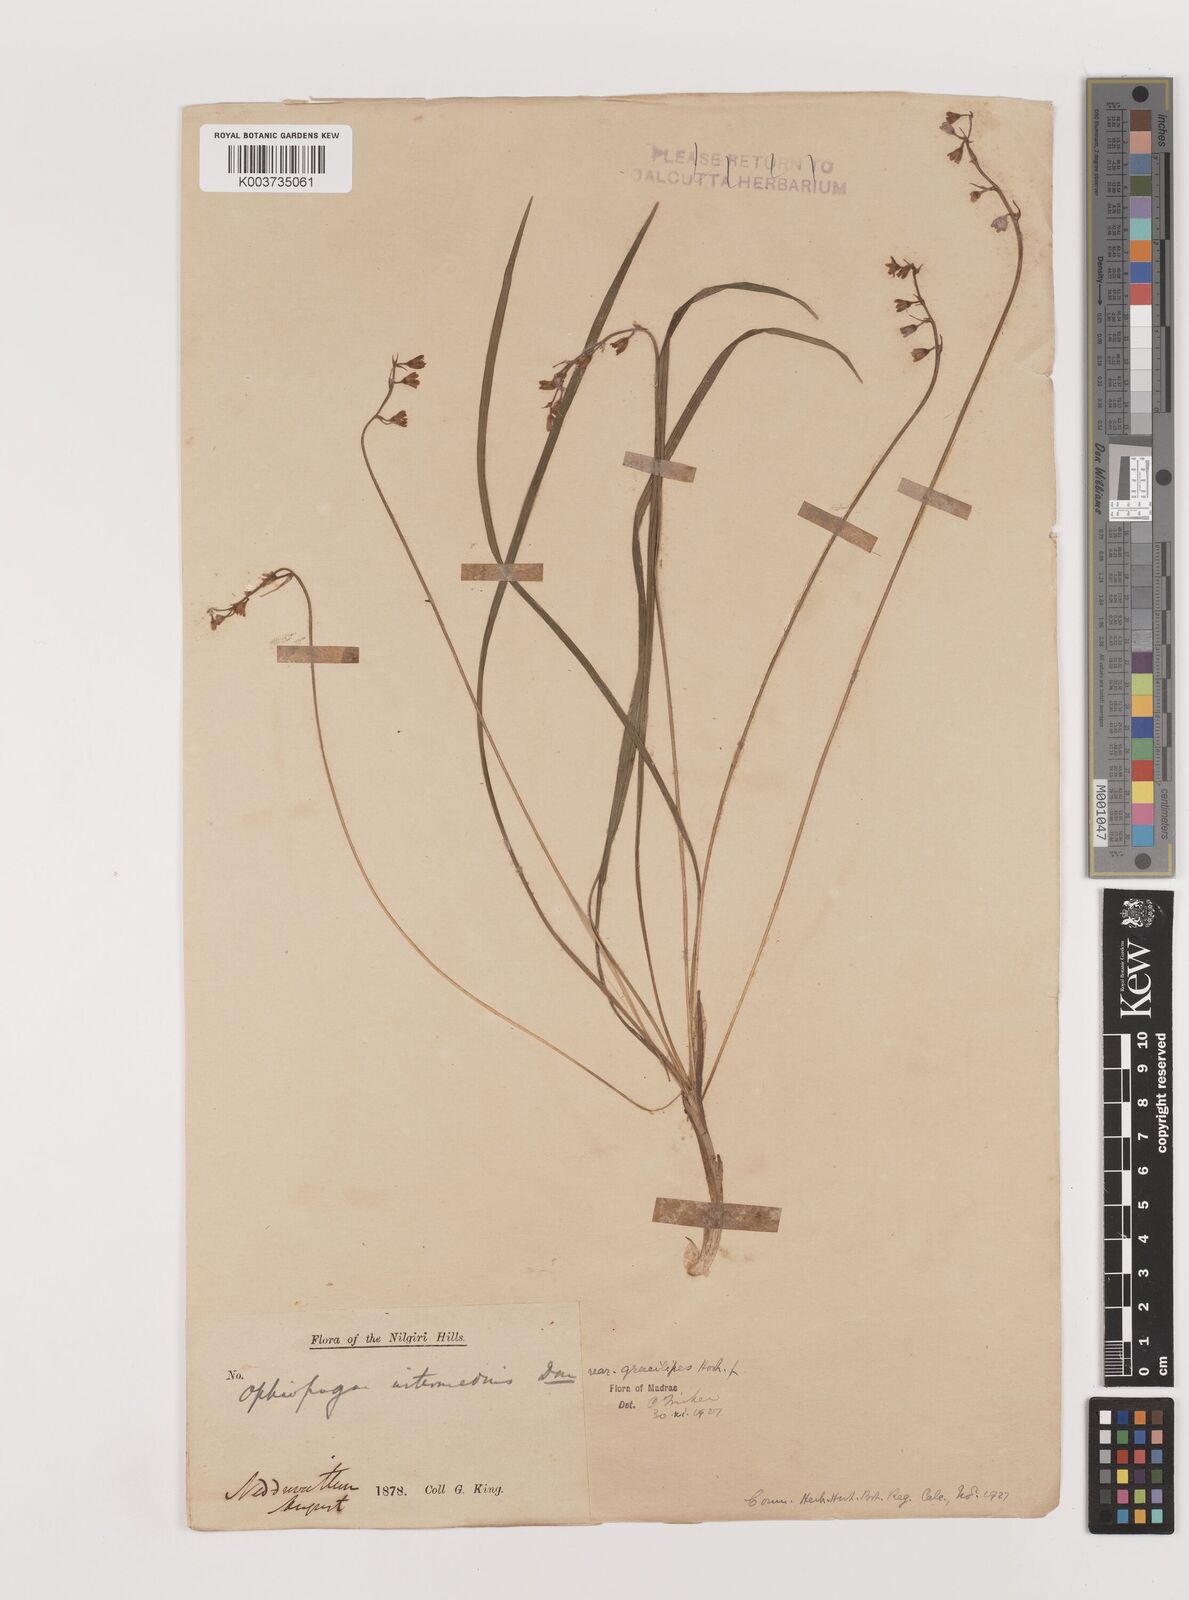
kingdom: Plantae
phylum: Tracheophyta
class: Liliopsida
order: Asparagales
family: Asparagaceae
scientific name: Asparagaceae
